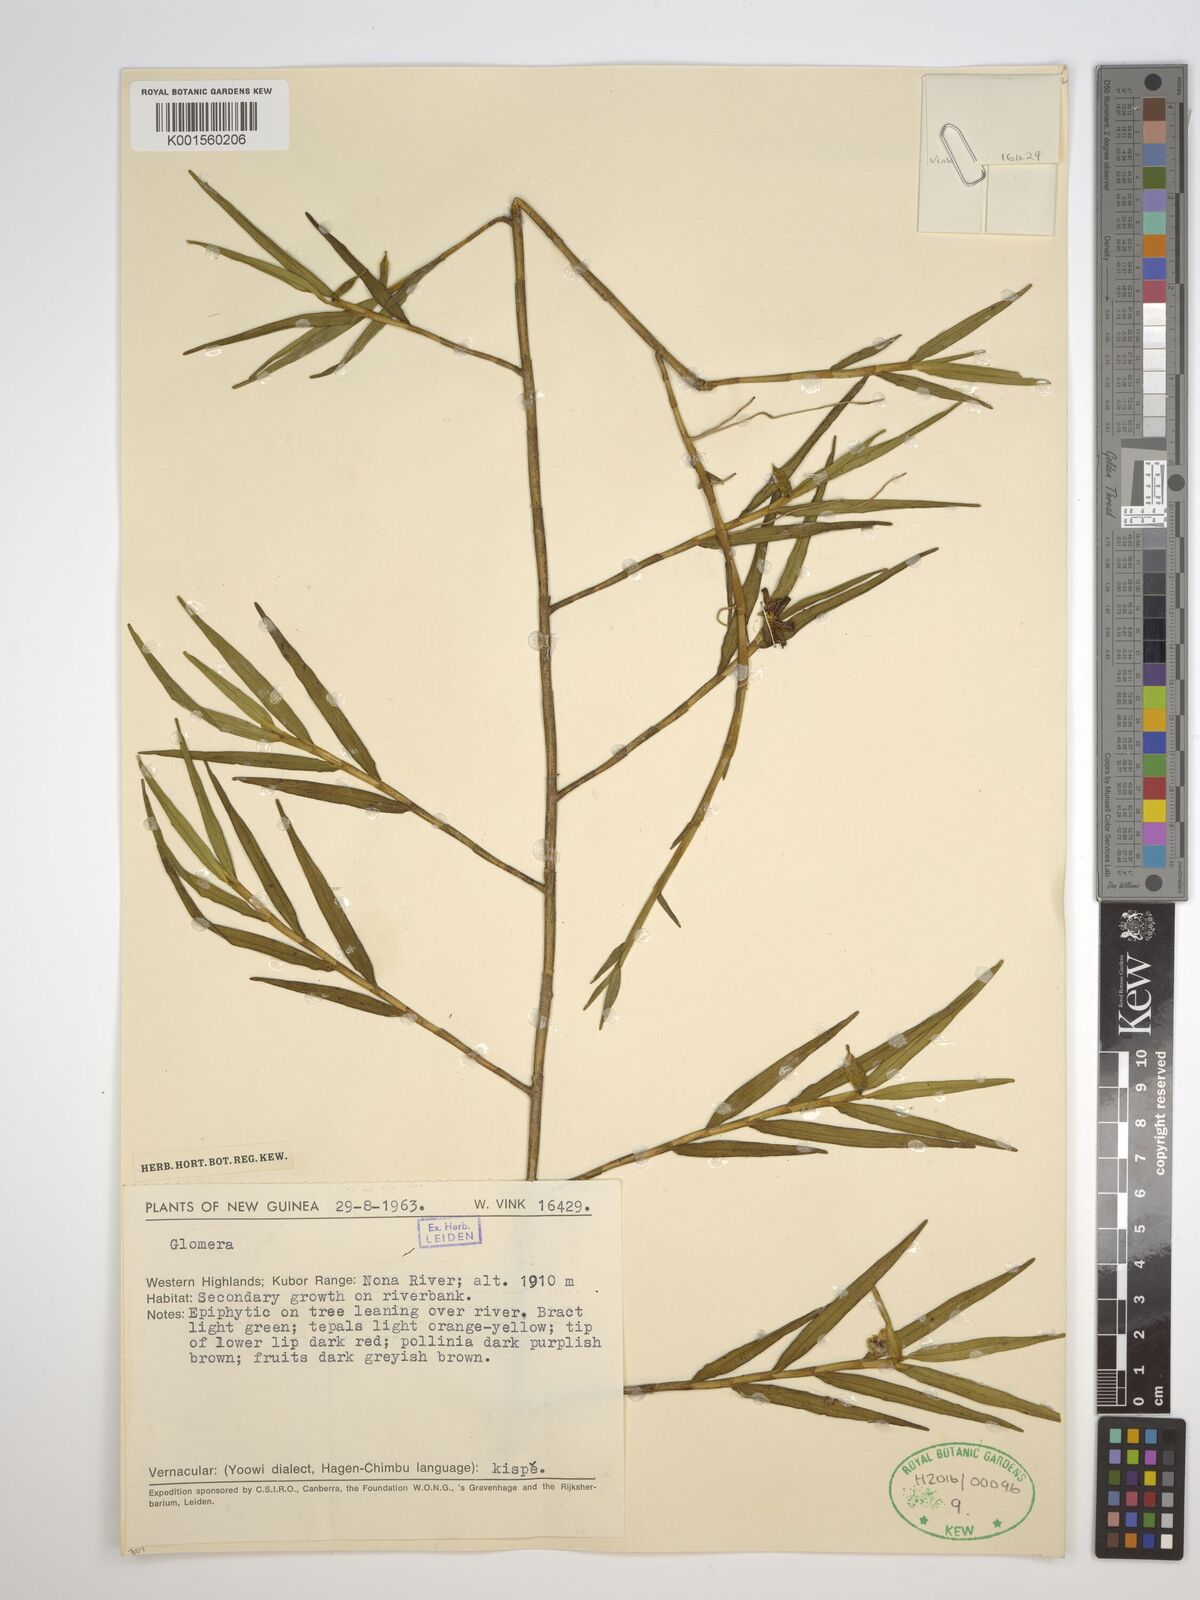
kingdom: Plantae
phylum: Tracheophyta
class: Liliopsida
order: Asparagales
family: Orchidaceae
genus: Glomera
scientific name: Glomera
